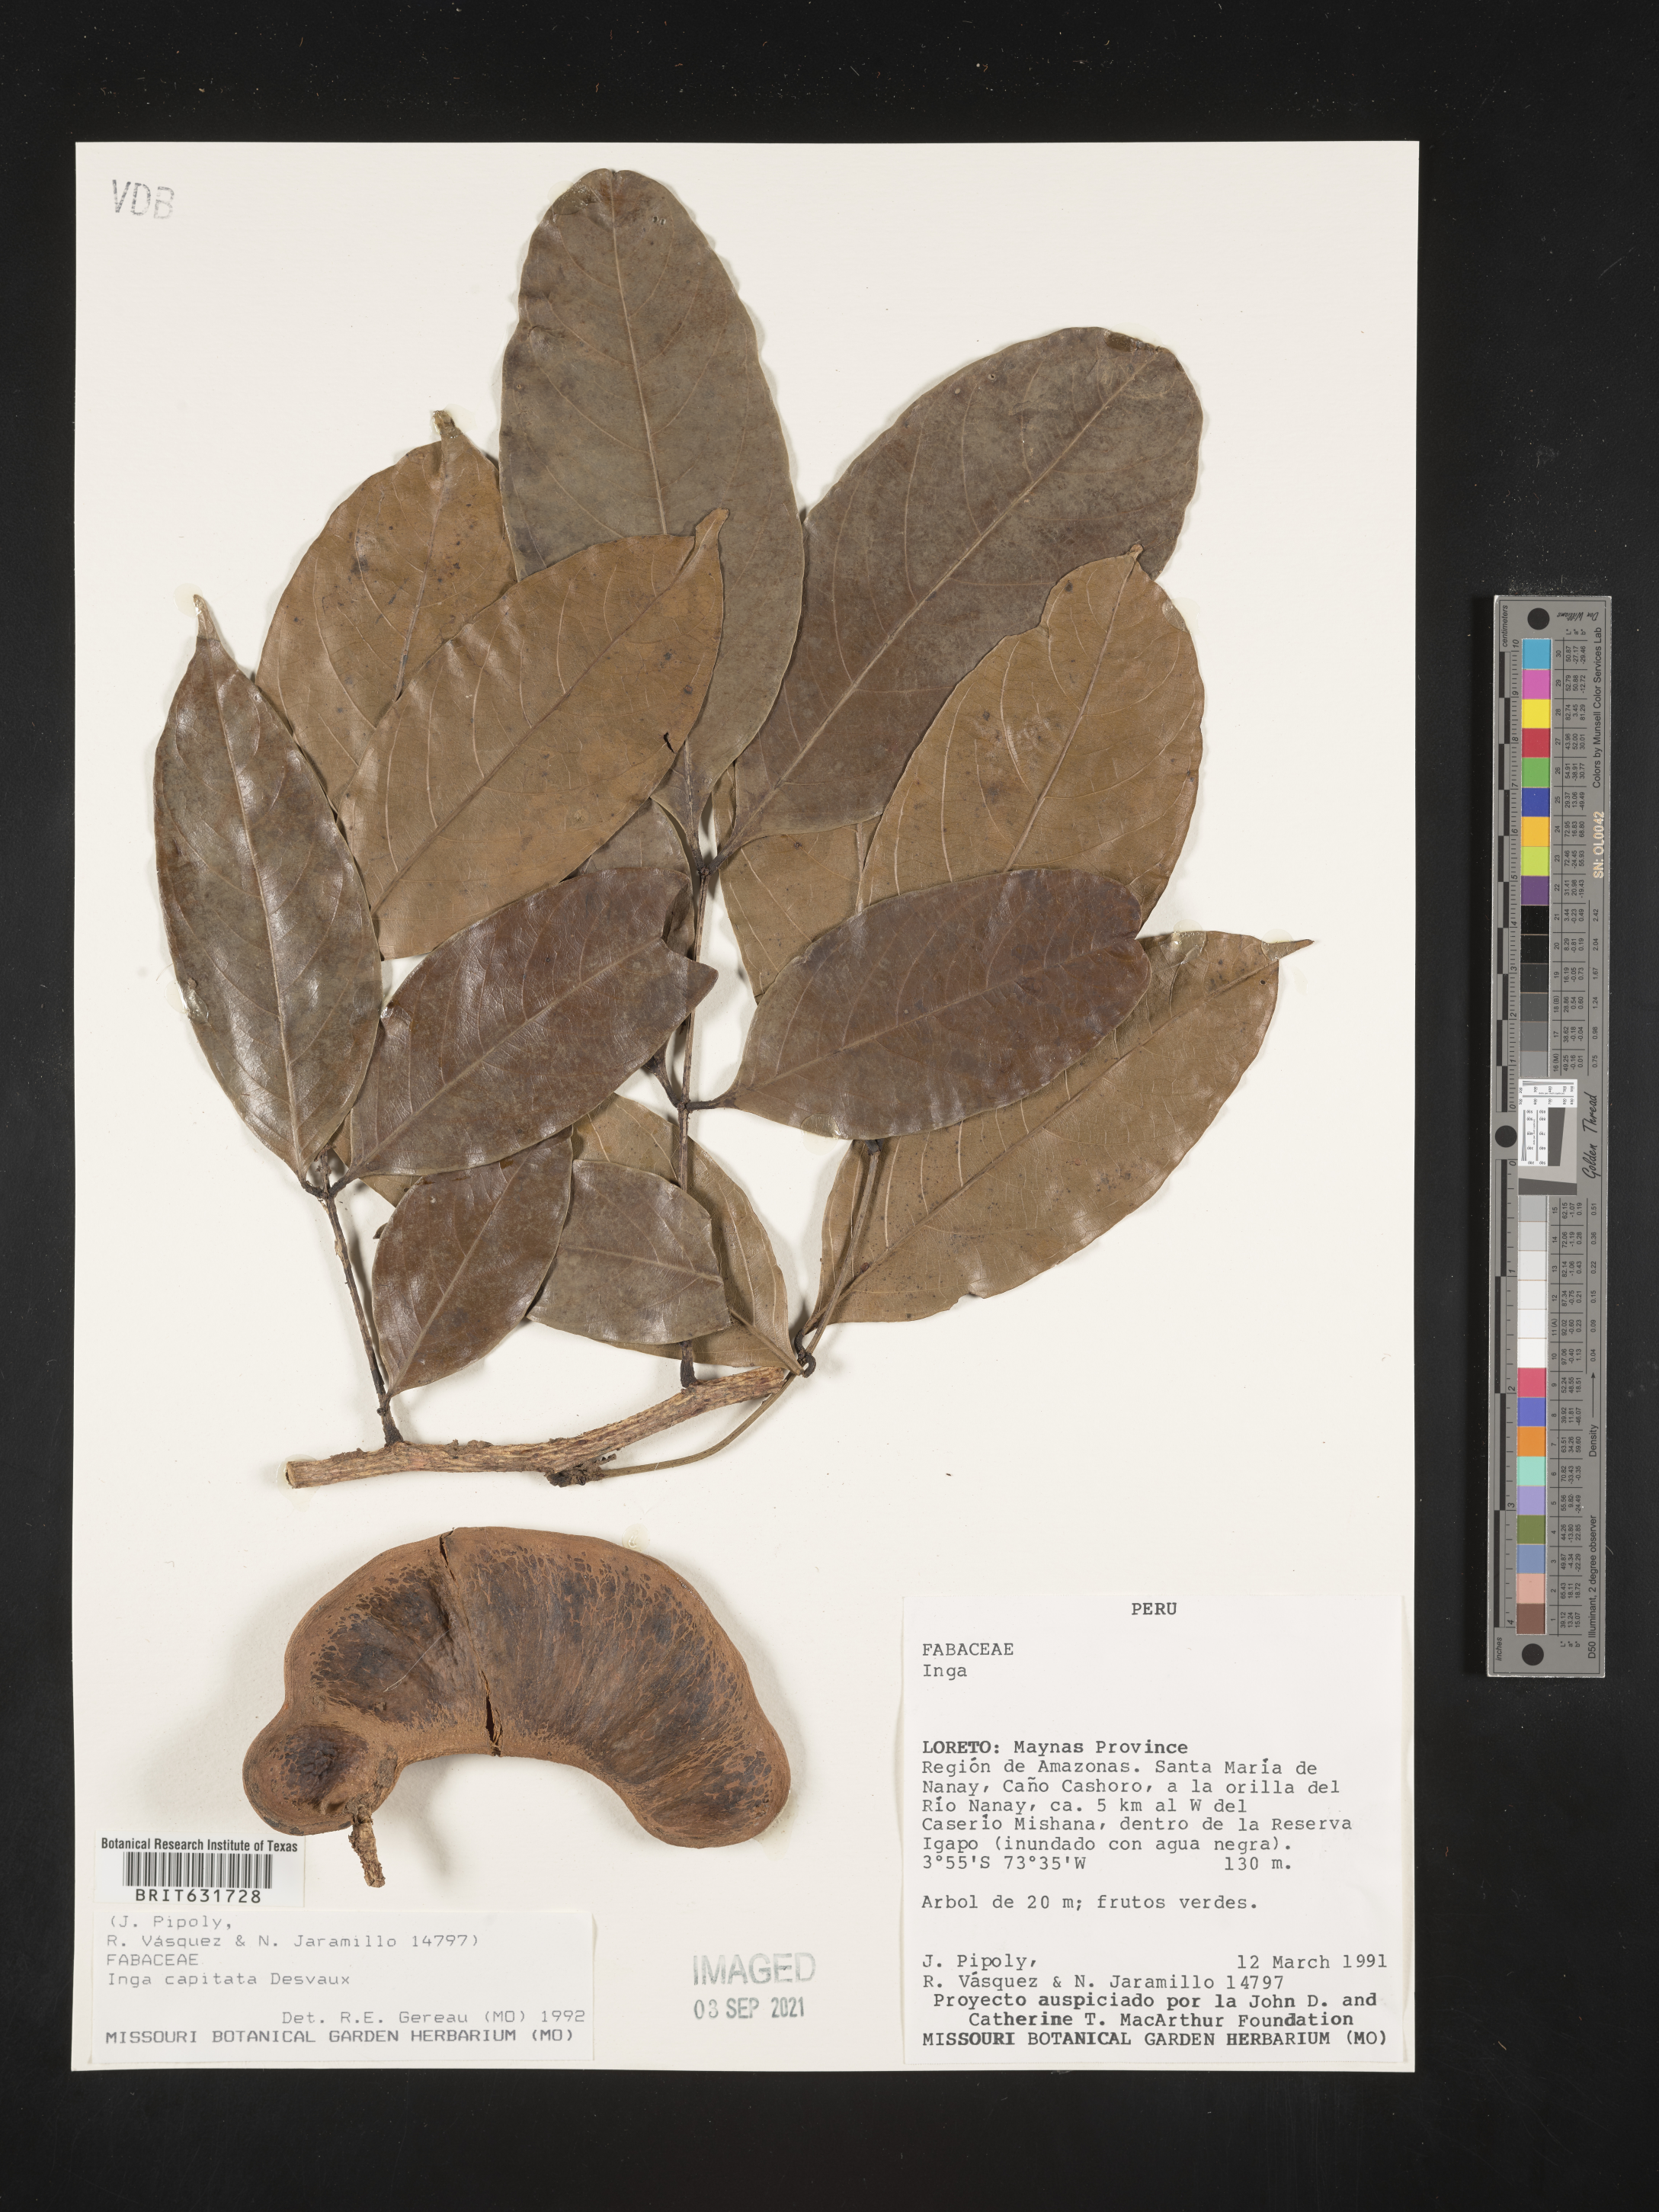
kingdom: Plantae
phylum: Tracheophyta
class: Magnoliopsida
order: Fabales
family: Fabaceae
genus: Inga
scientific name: Inga
